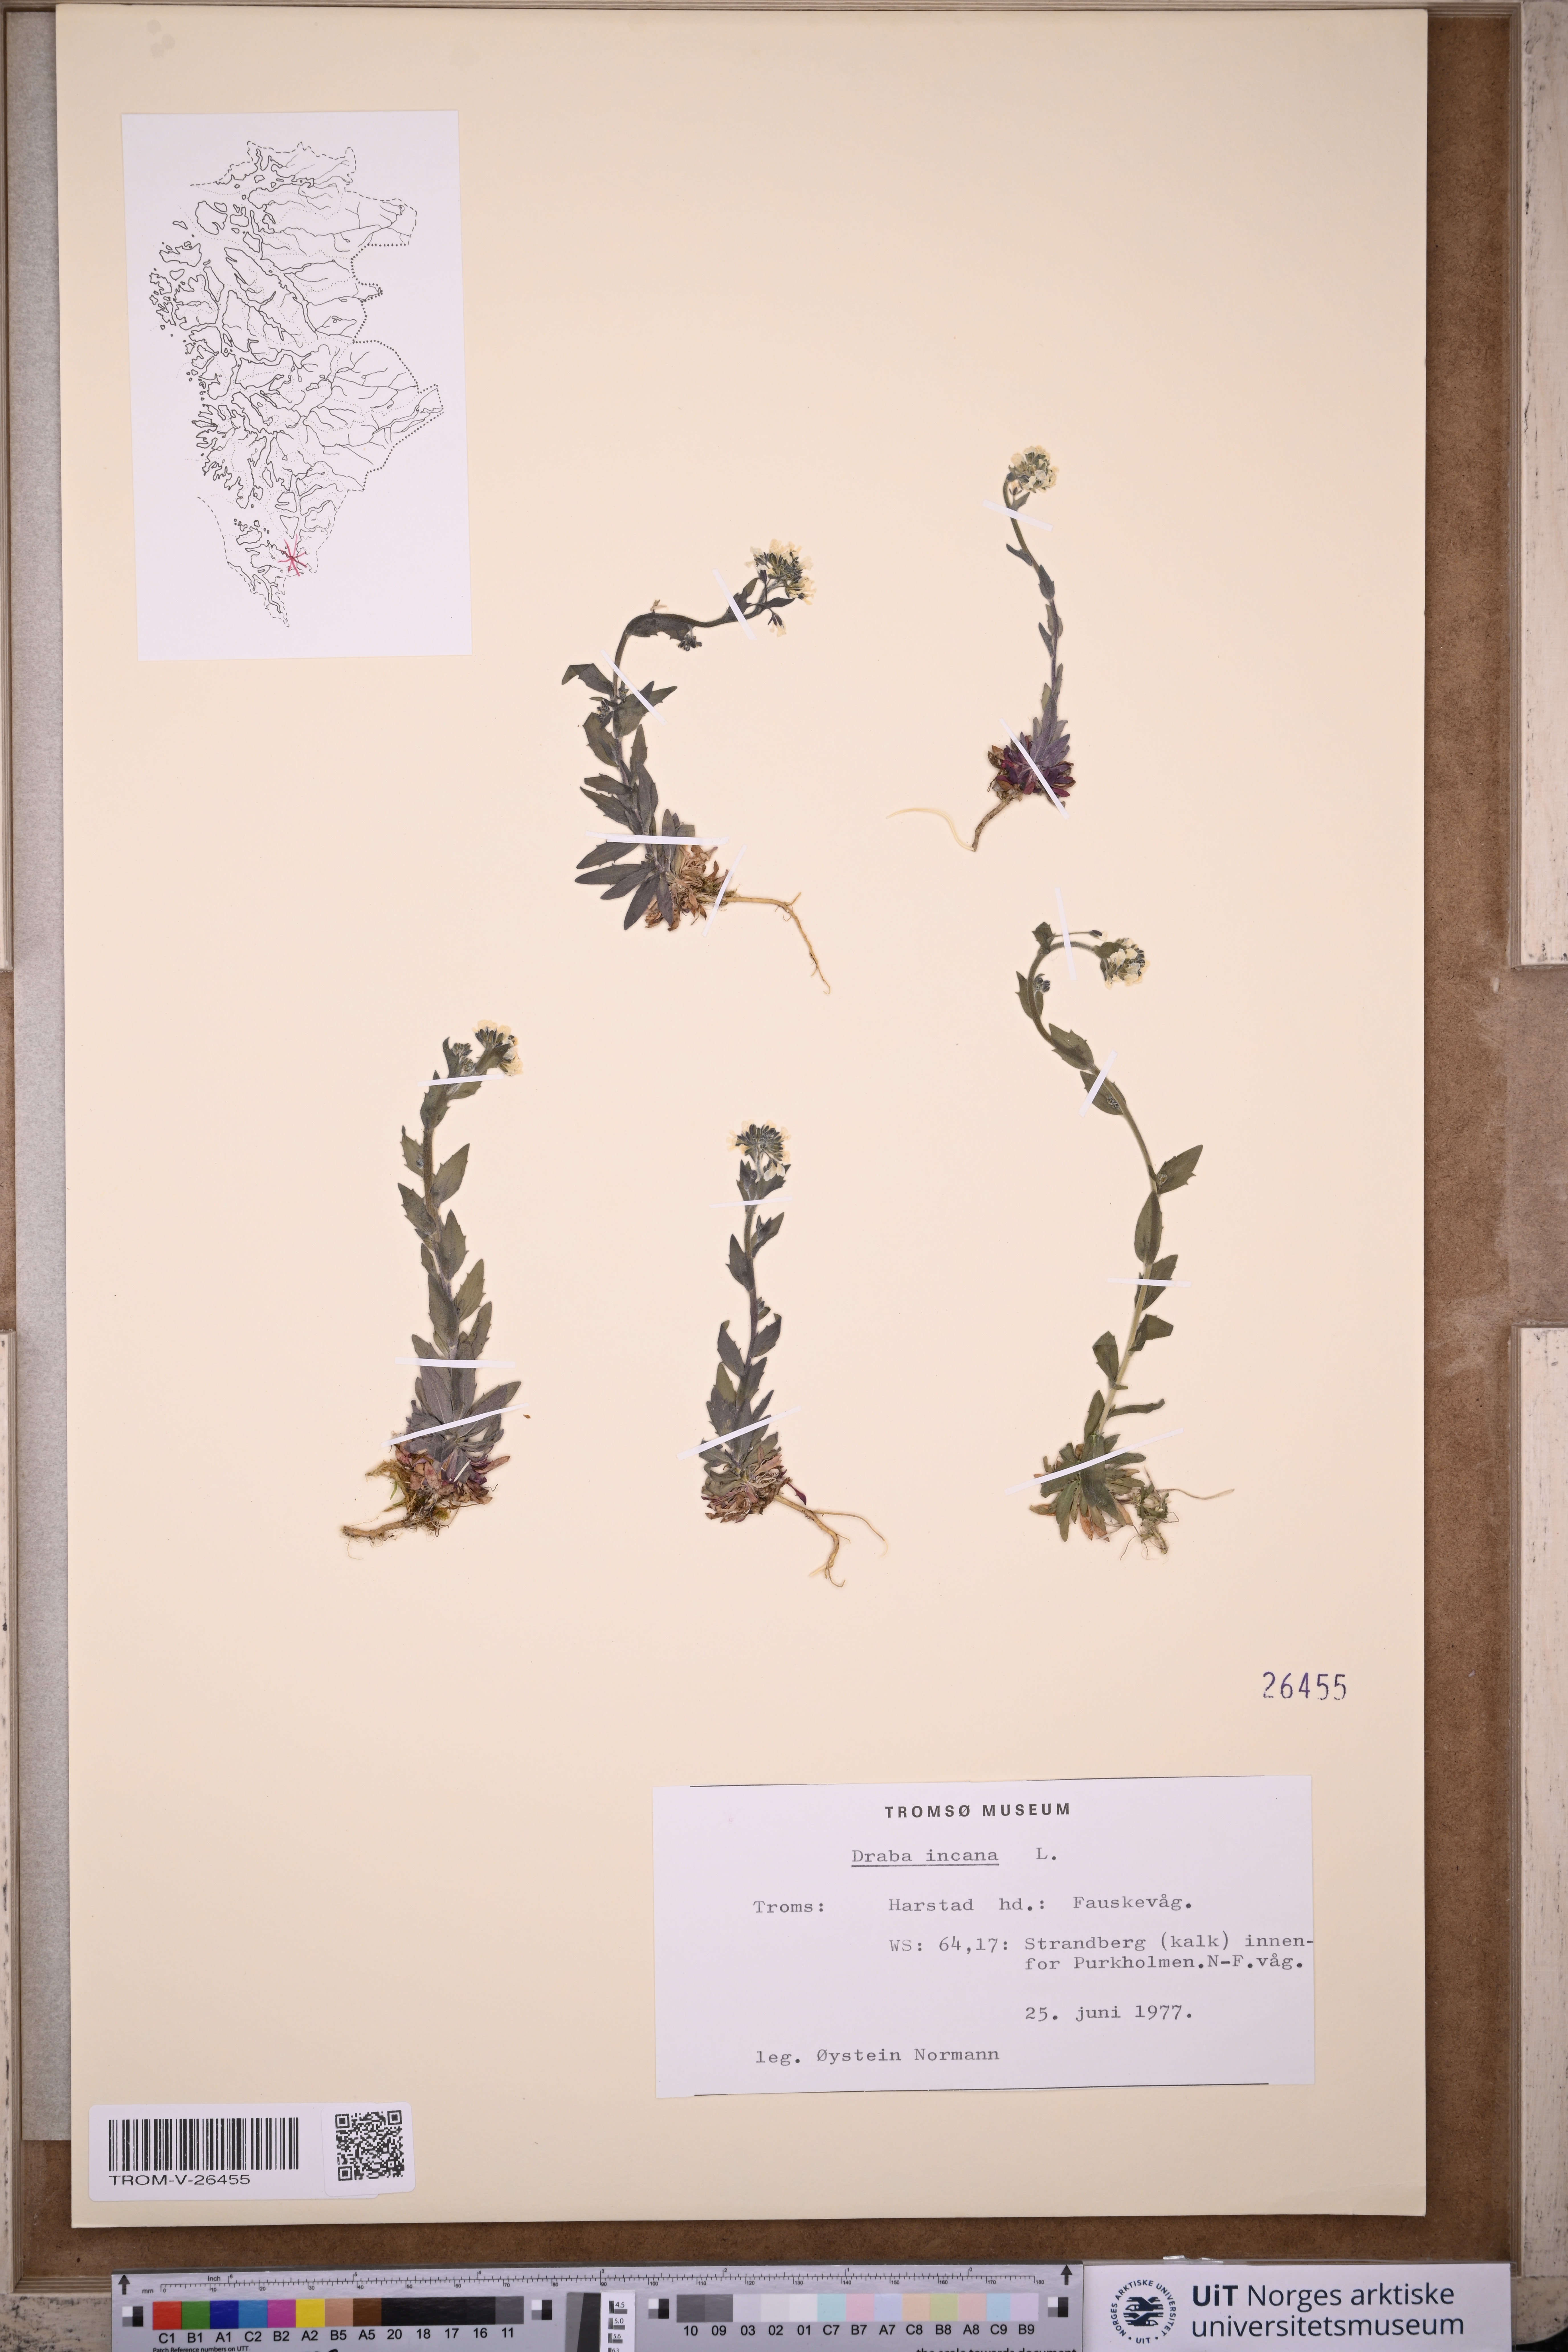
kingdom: Plantae
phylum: Tracheophyta
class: Magnoliopsida
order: Brassicales
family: Brassicaceae
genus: Draba
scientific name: Draba incana
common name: Hoary whitlow-grass
